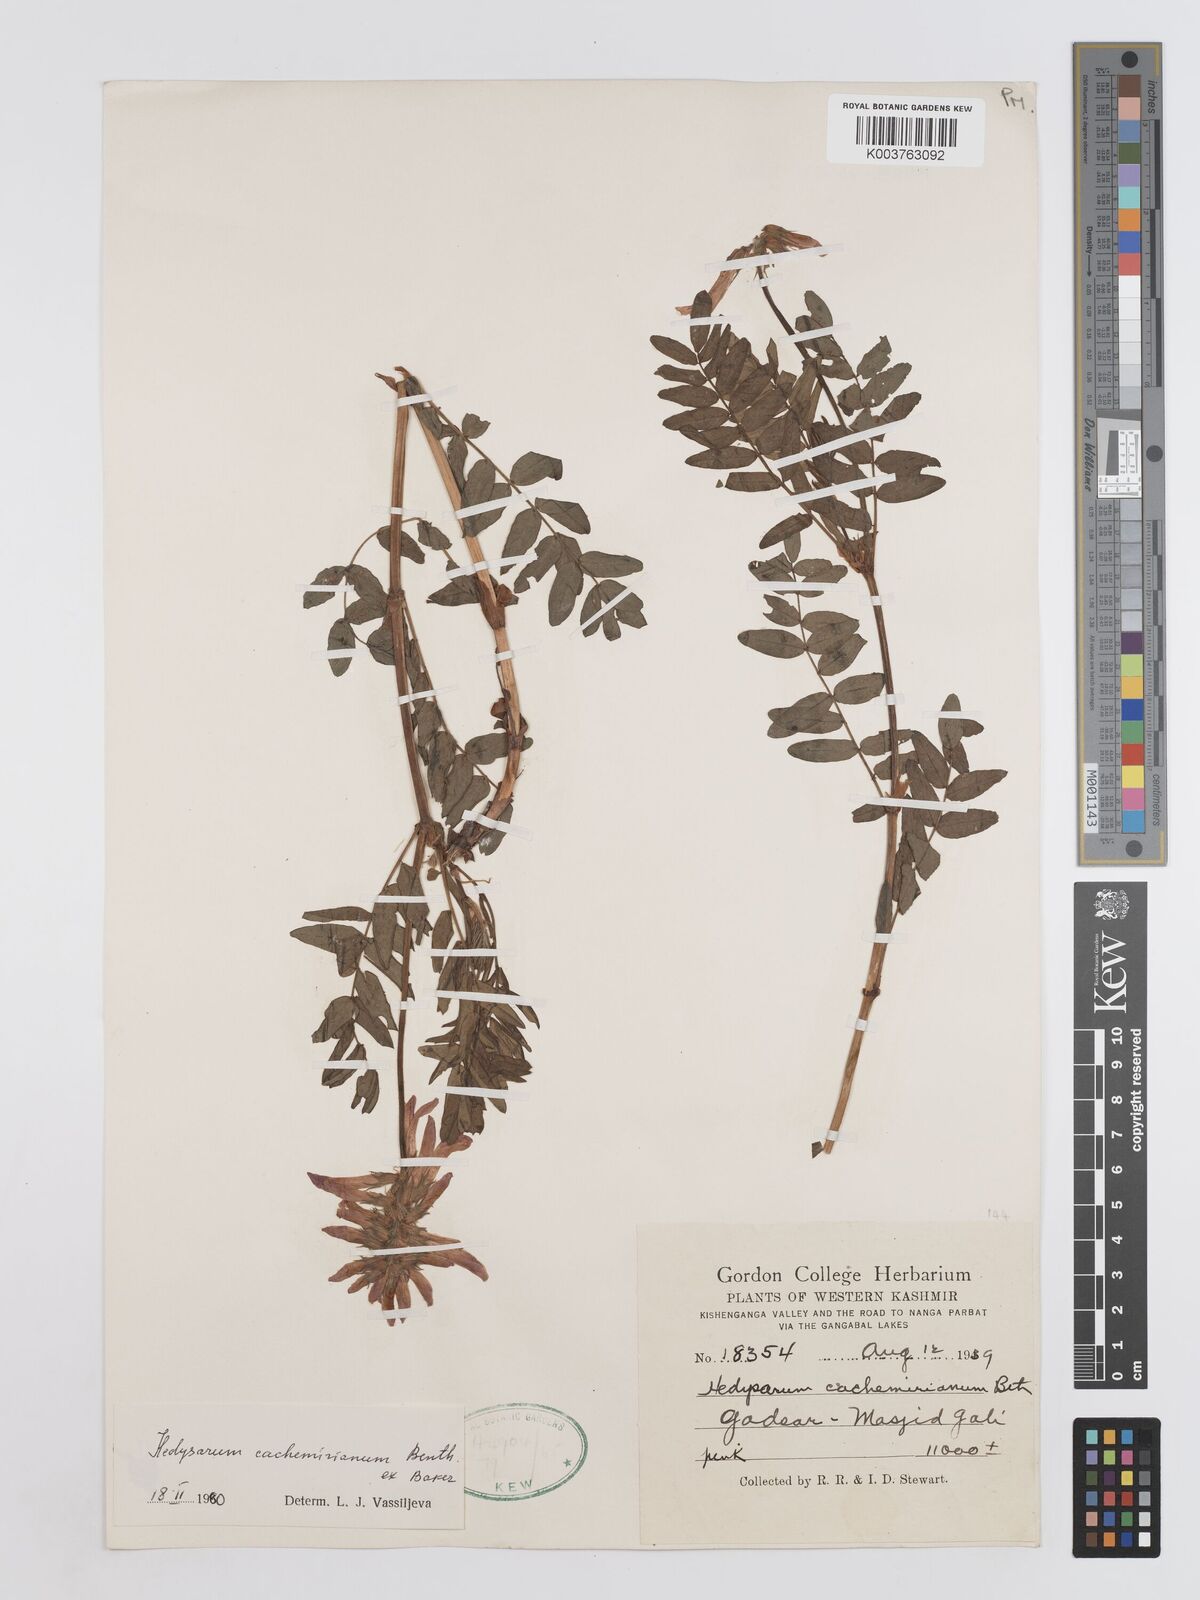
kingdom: Plantae
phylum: Tracheophyta
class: Magnoliopsida
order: Fabales
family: Fabaceae
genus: Hedysarum
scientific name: Hedysarum cachemirianum
